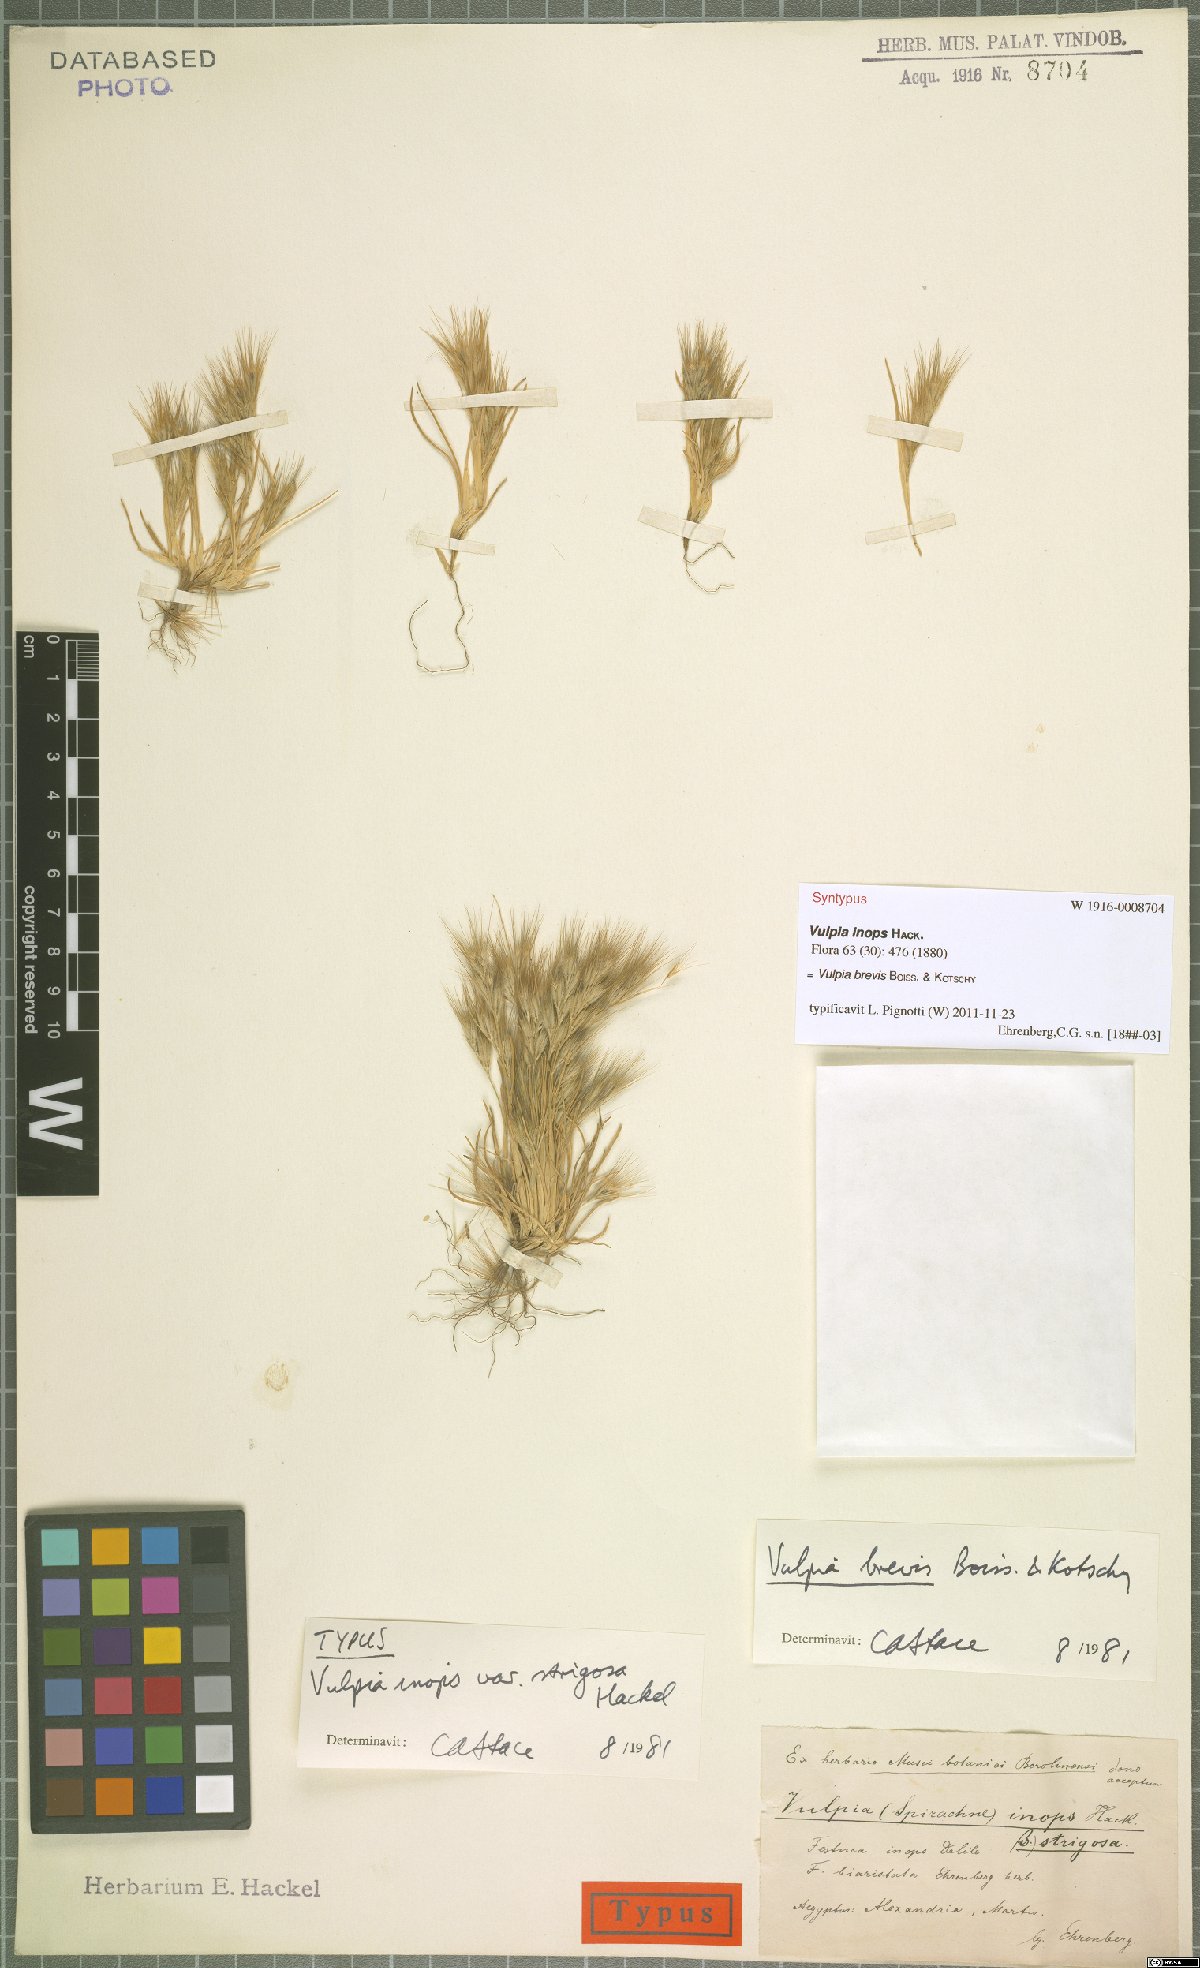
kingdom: Plantae
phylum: Tracheophyta
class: Liliopsida
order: Poales
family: Poaceae
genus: Festuca
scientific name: Festuca brevis
